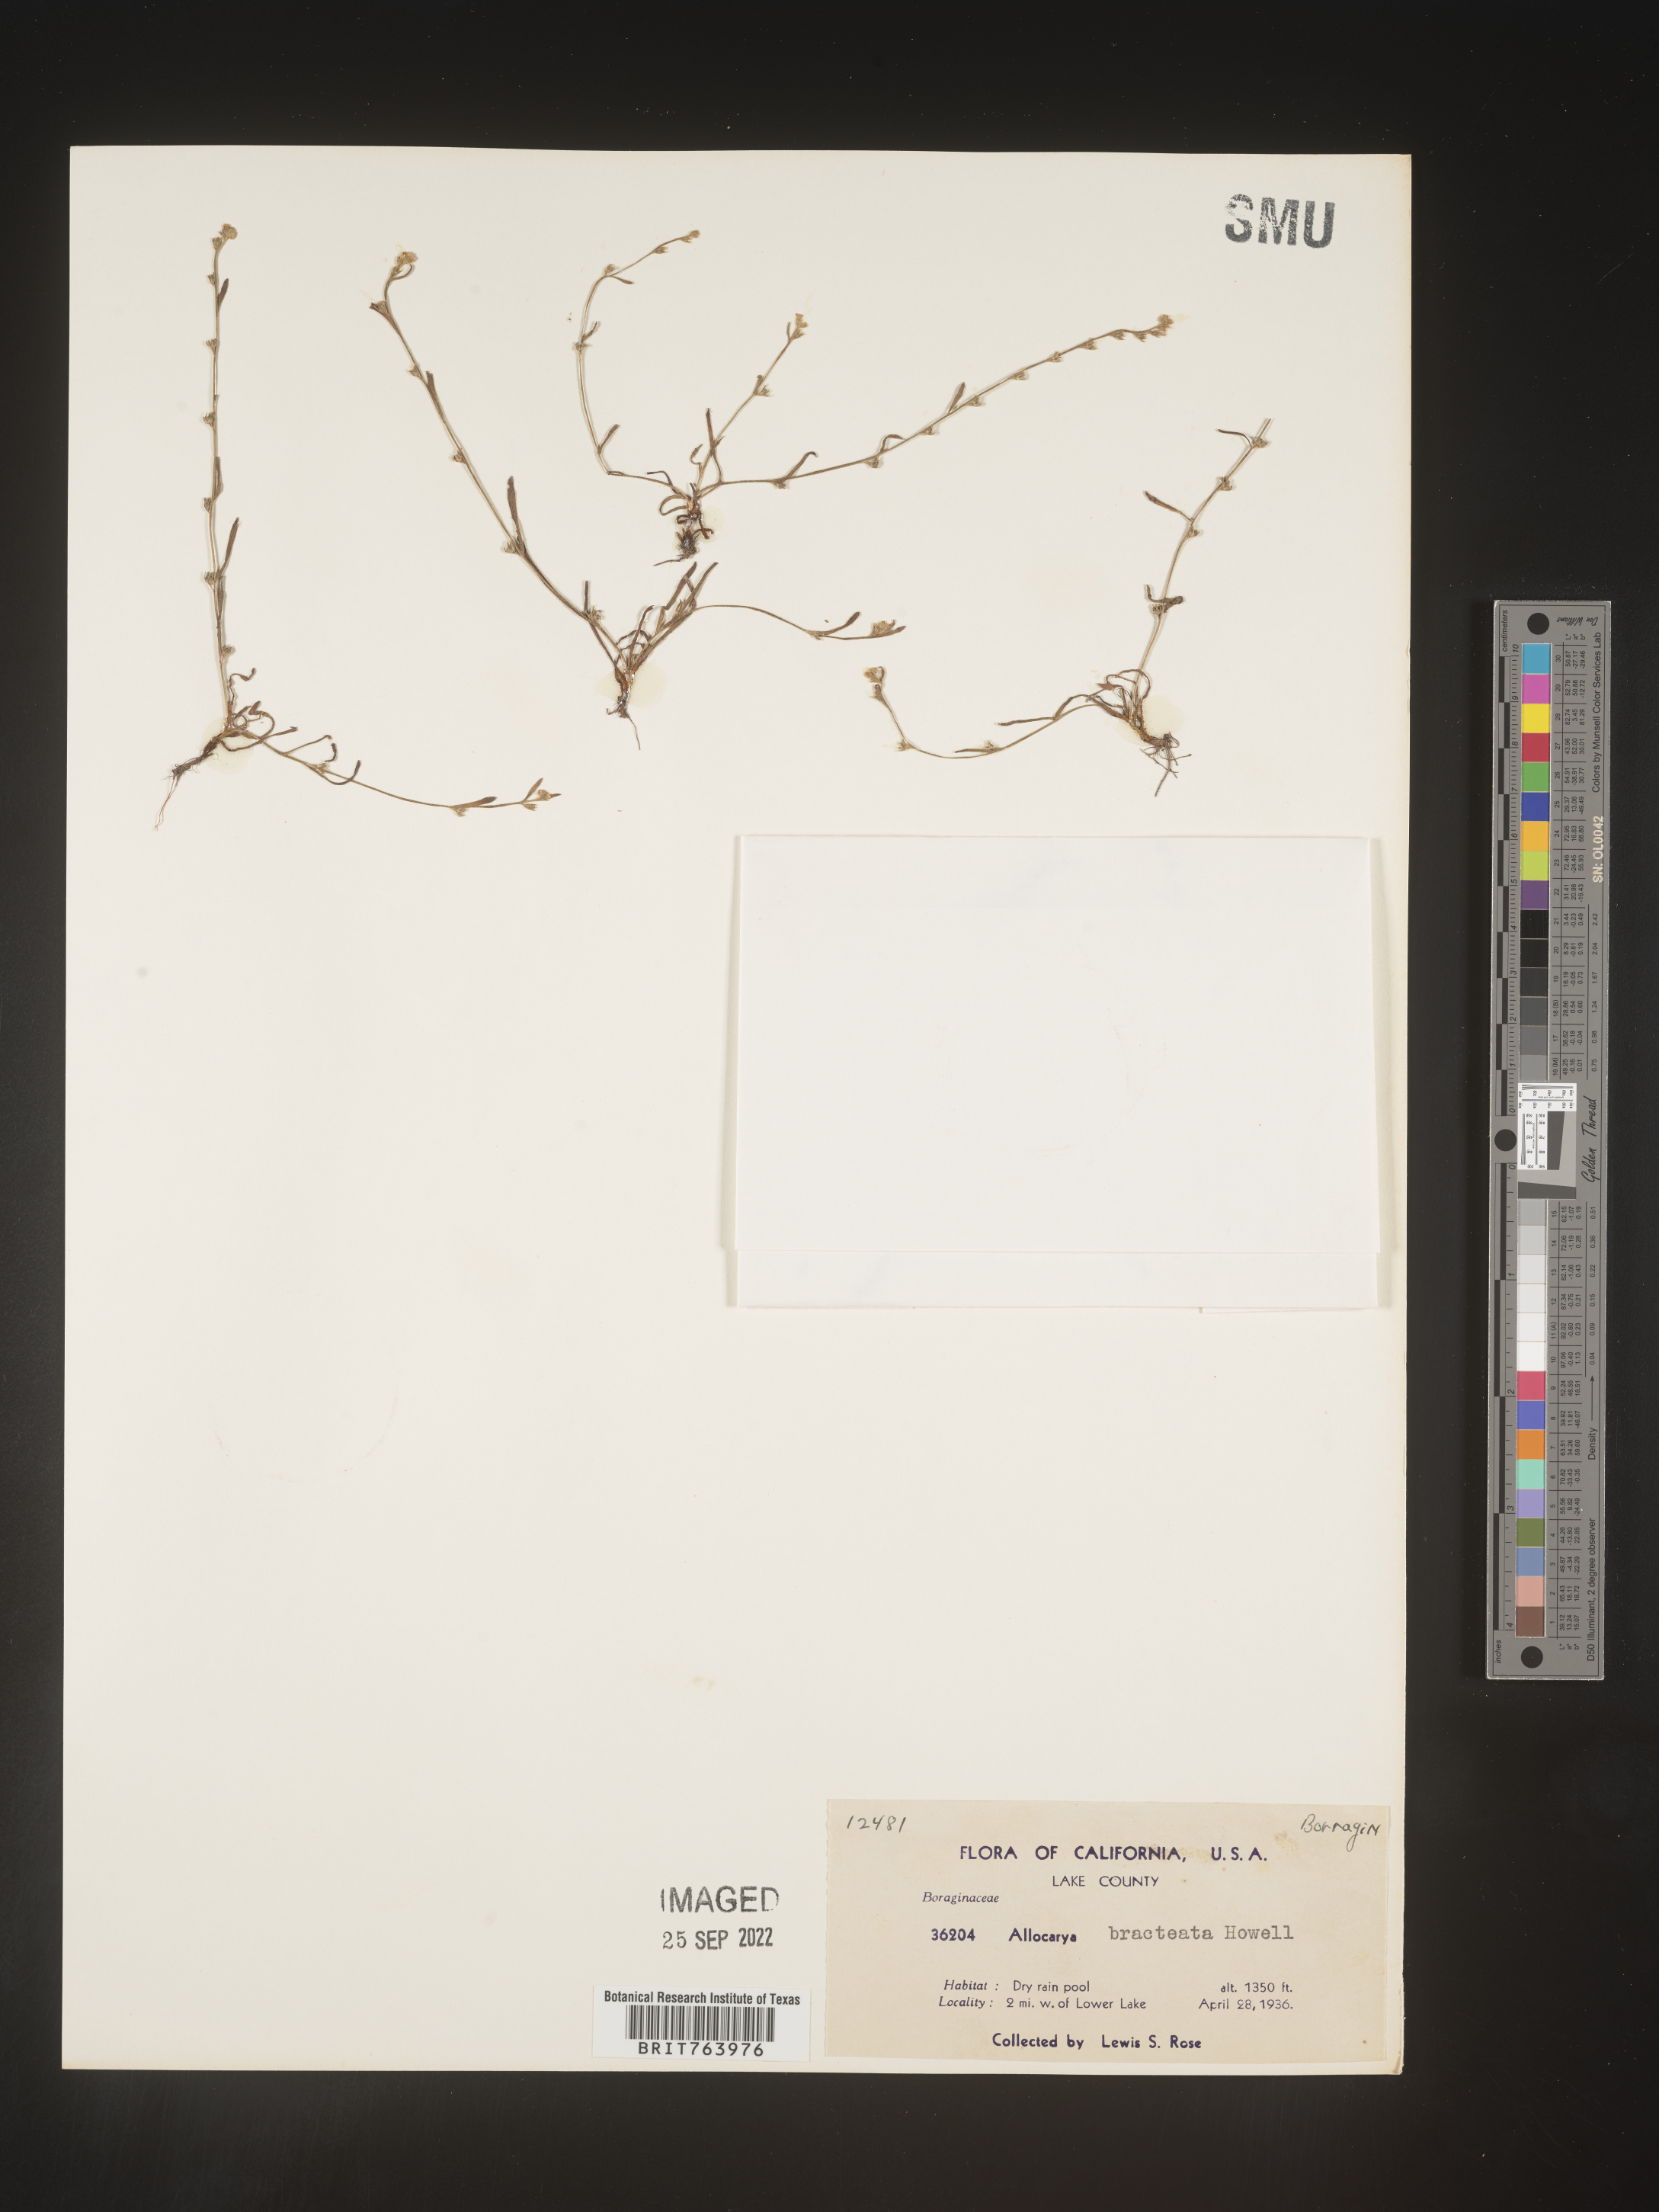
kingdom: Plantae
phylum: Tracheophyta
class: Magnoliopsida
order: Boraginales
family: Boraginaceae
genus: Plagiobothrys
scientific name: Plagiobothrys
